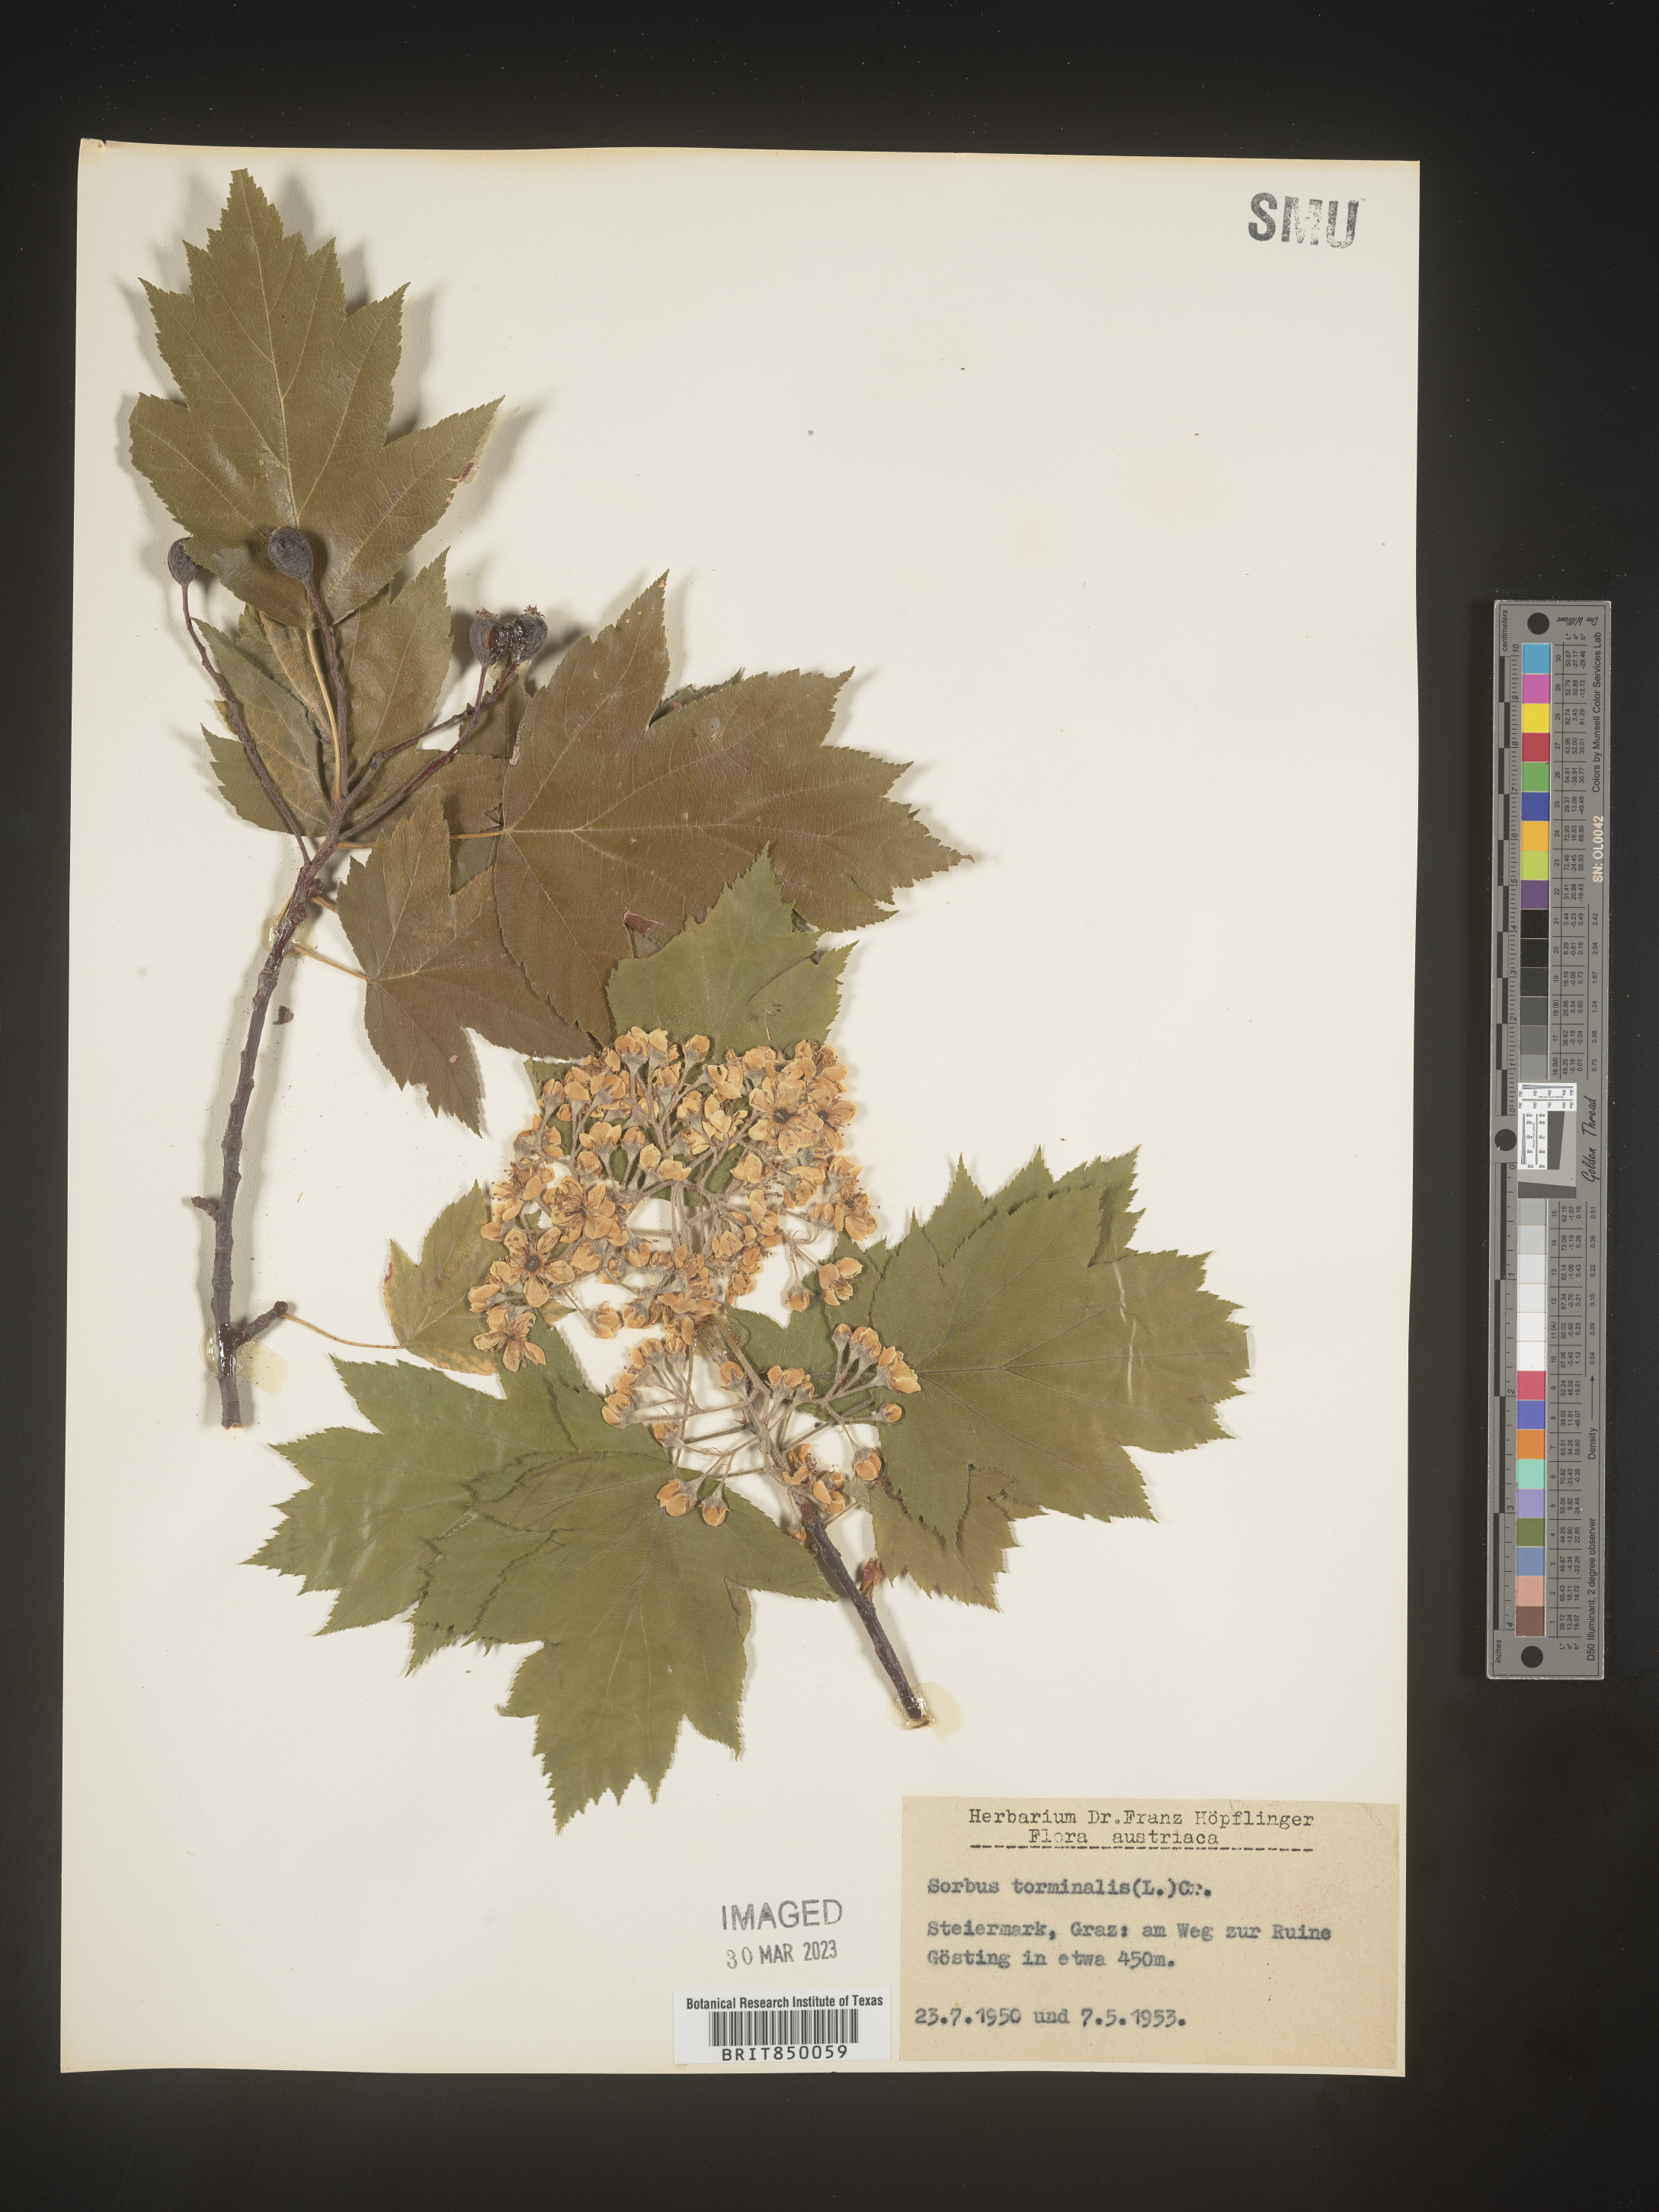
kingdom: Plantae
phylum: Tracheophyta
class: Magnoliopsida
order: Rosales
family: Rosaceae
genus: Sorbus
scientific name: Sorbus
